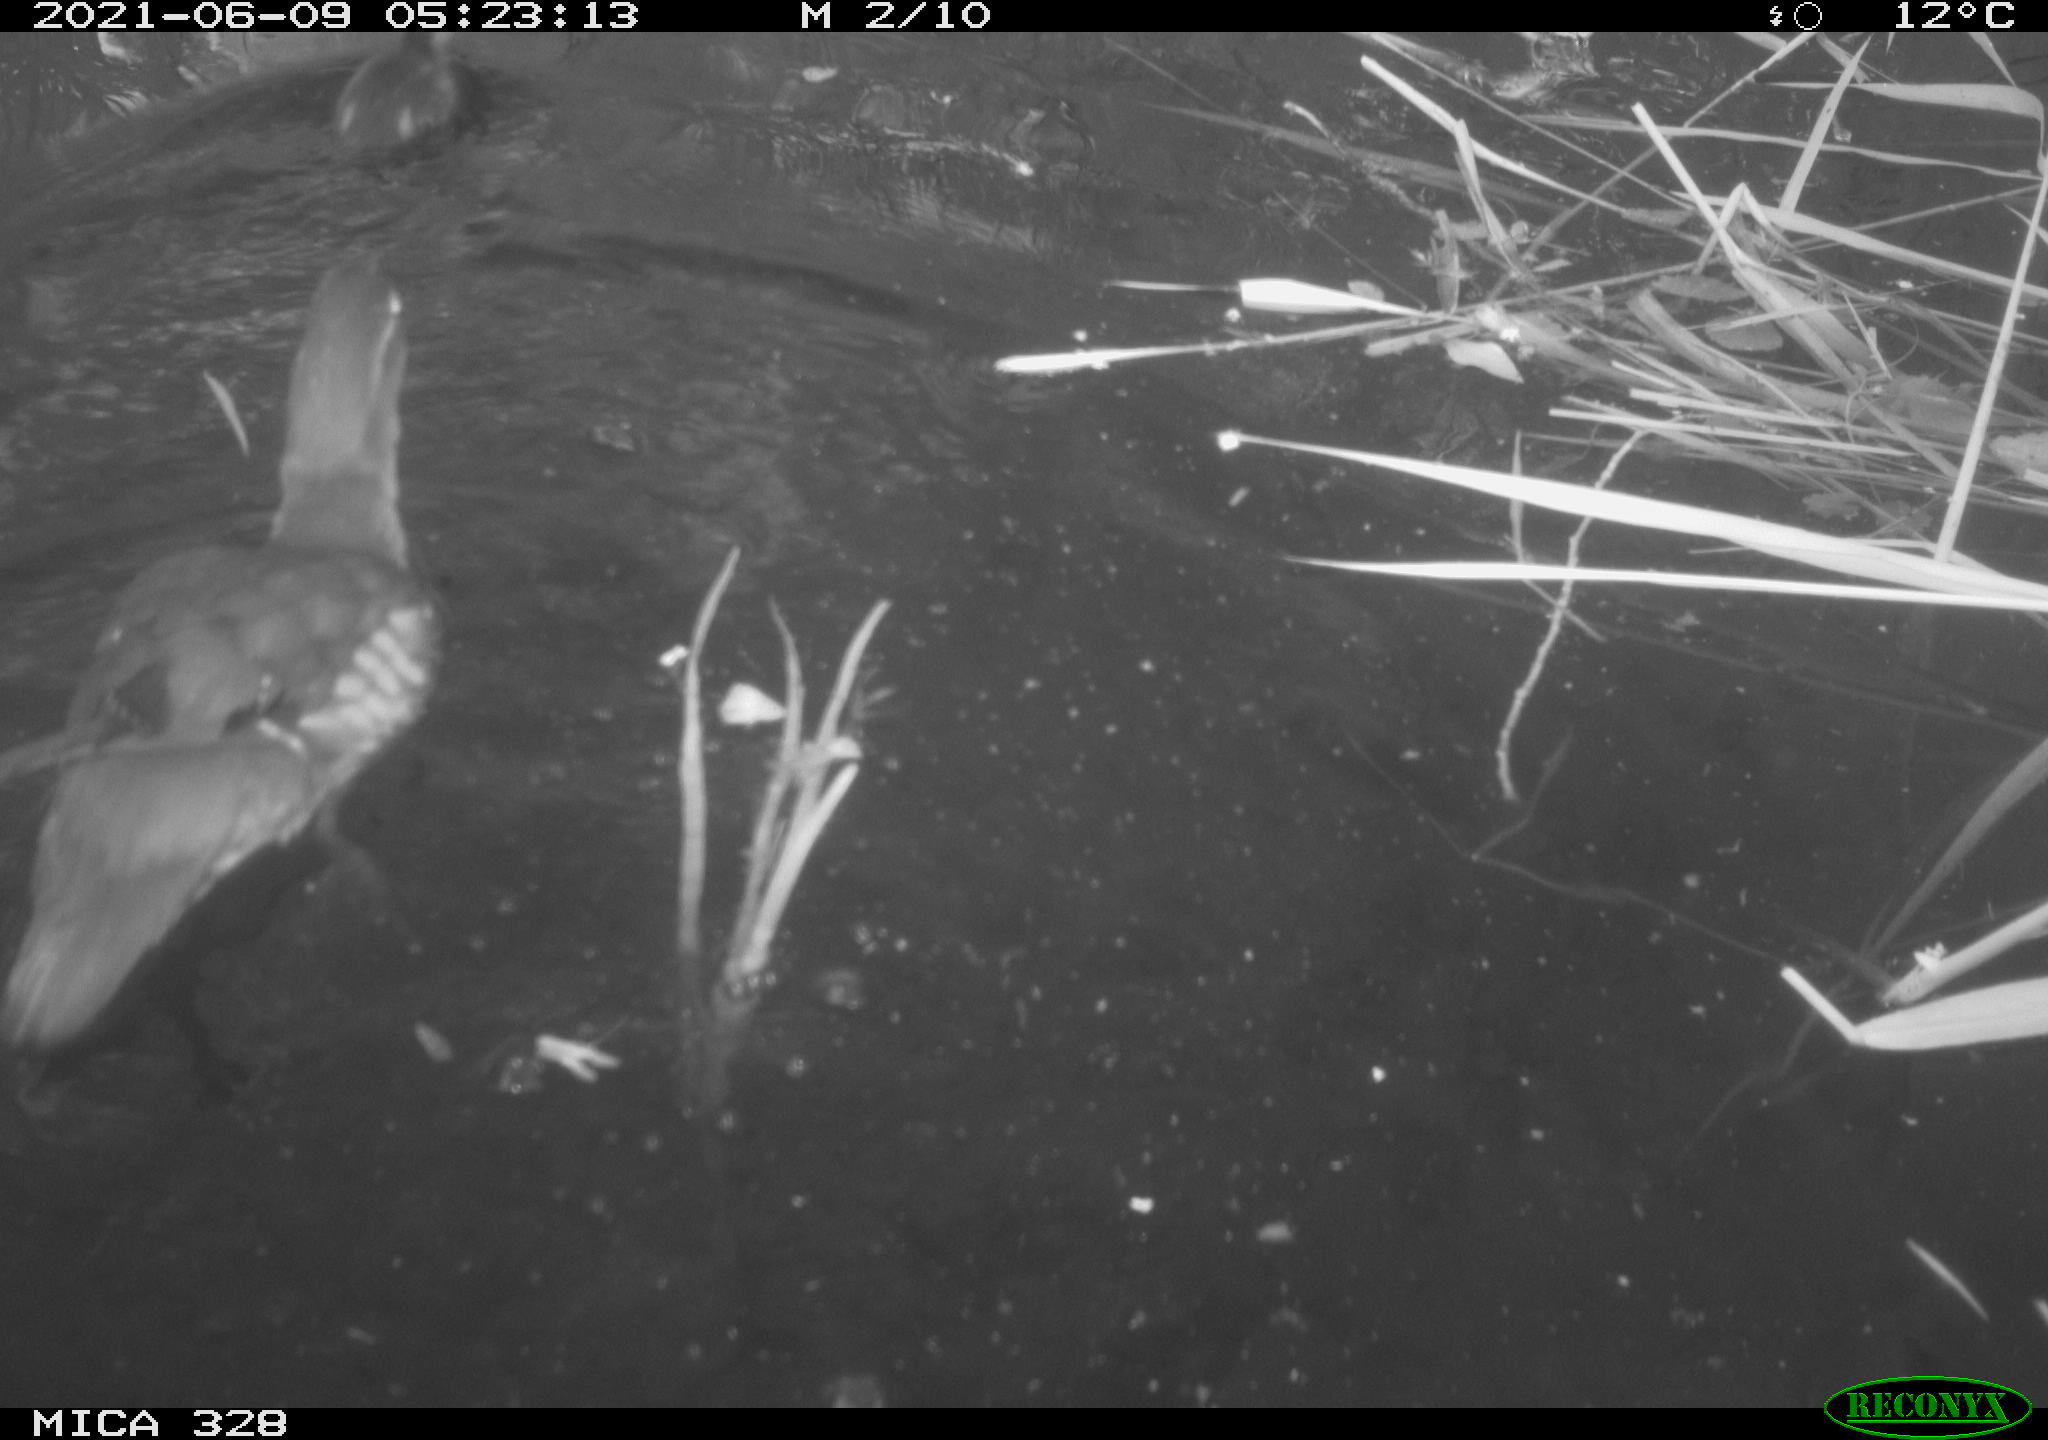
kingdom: Animalia
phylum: Chordata
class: Aves
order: Anseriformes
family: Anatidae
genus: Aix
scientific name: Aix galericulata
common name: Mandarin duck
